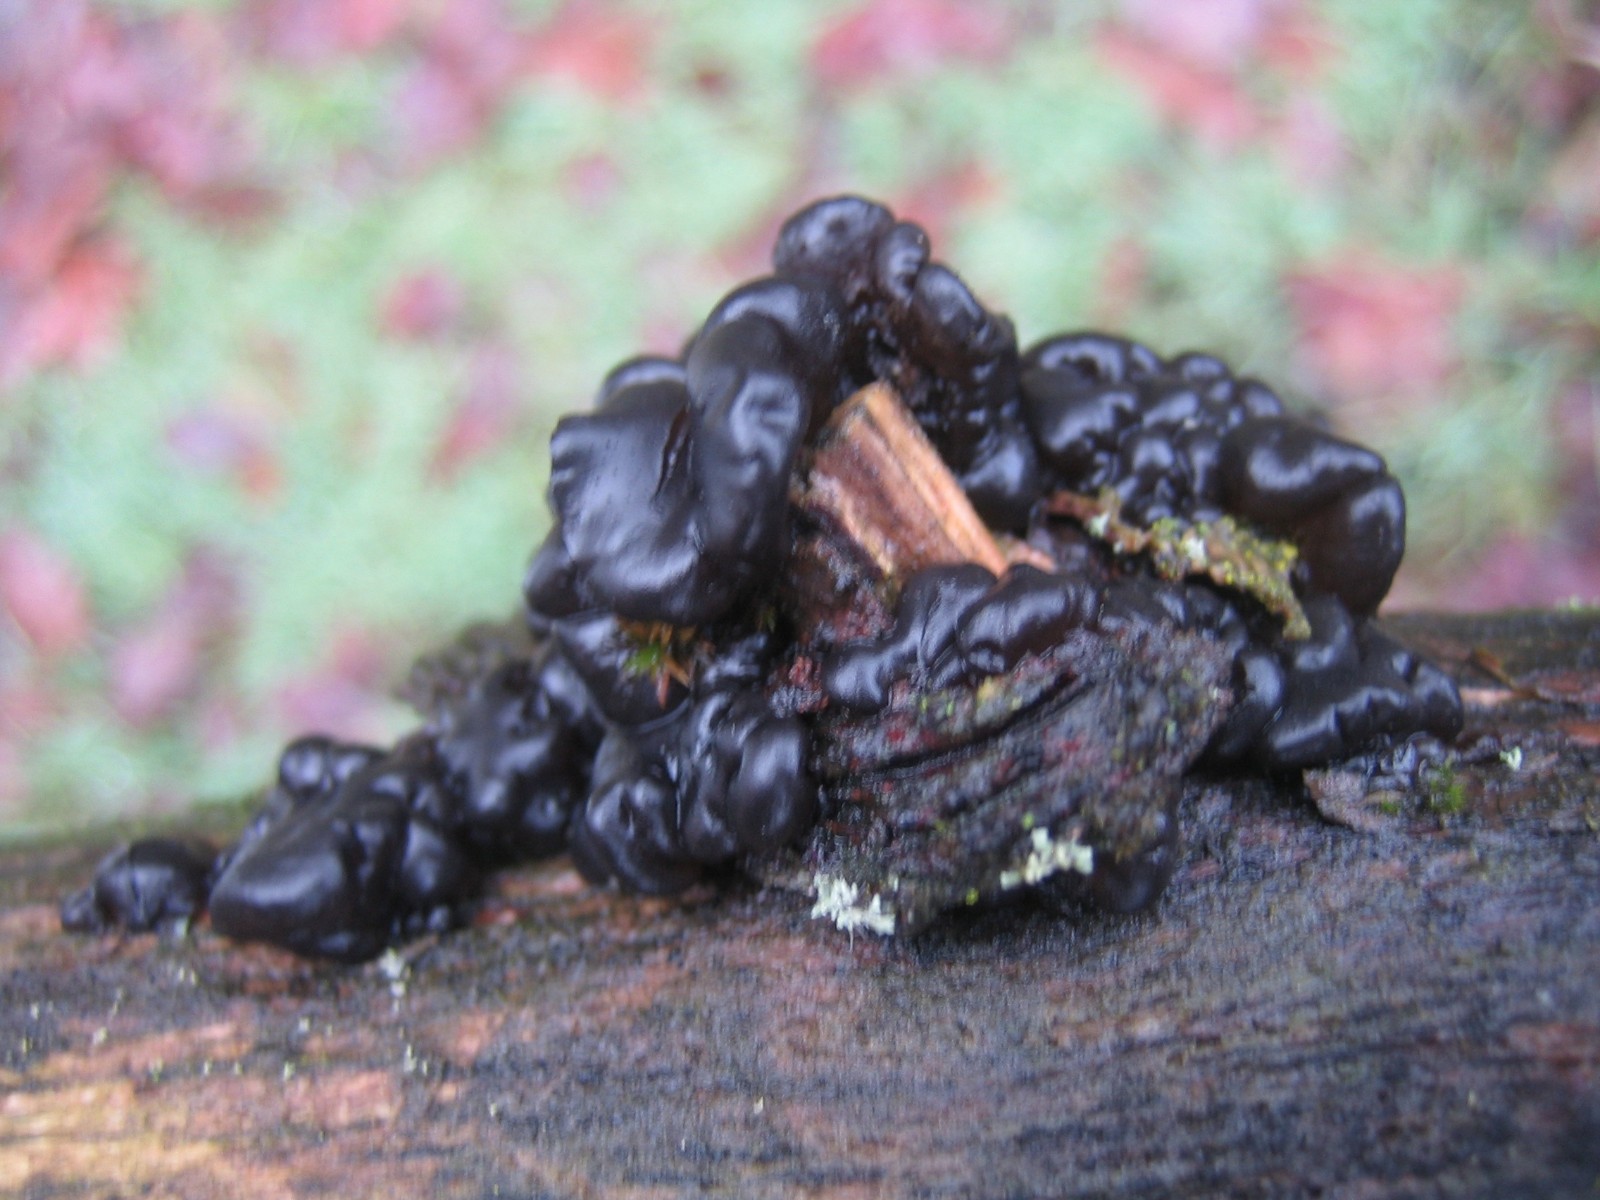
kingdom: Fungi
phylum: Basidiomycota
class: Agaricomycetes
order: Auriculariales
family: Auriculariaceae
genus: Exidia
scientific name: Exidia nigricans
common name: almindelig bævretop
